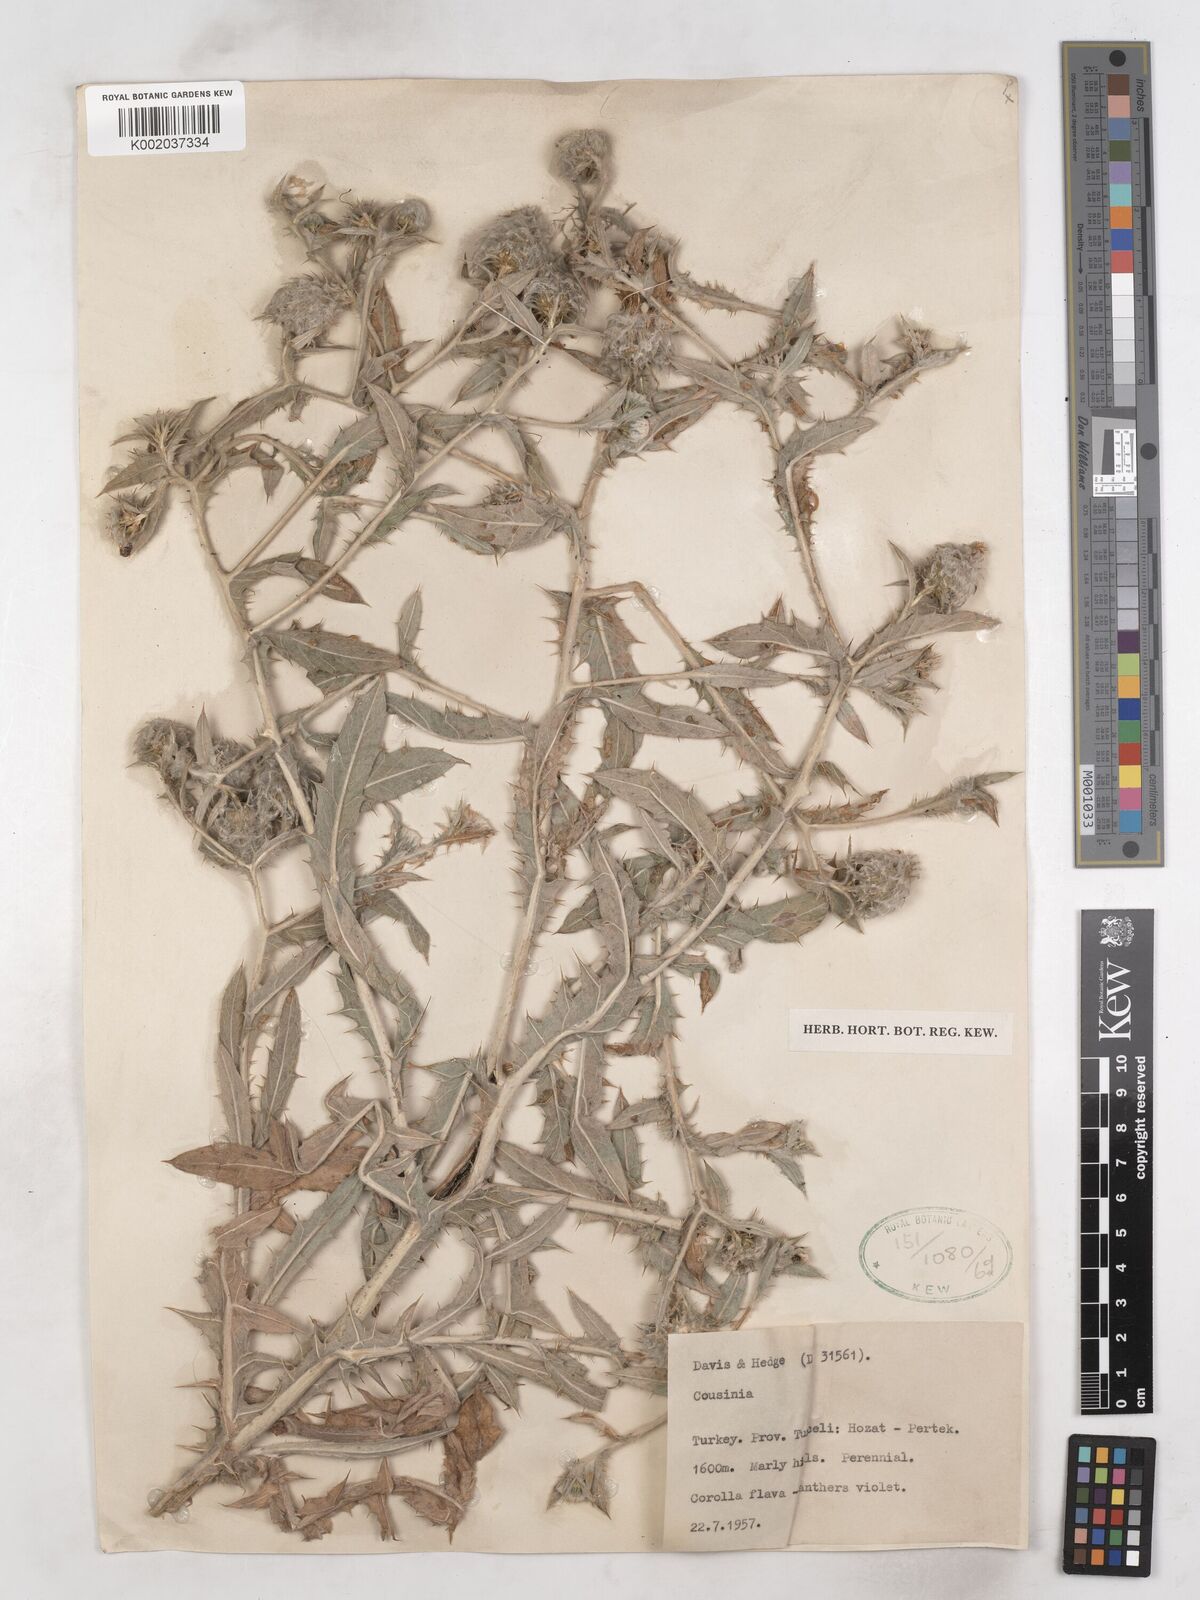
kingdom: Plantae
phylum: Tracheophyta
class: Magnoliopsida
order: Asterales
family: Asteraceae
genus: Cousinia
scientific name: Cousinia intertexta
